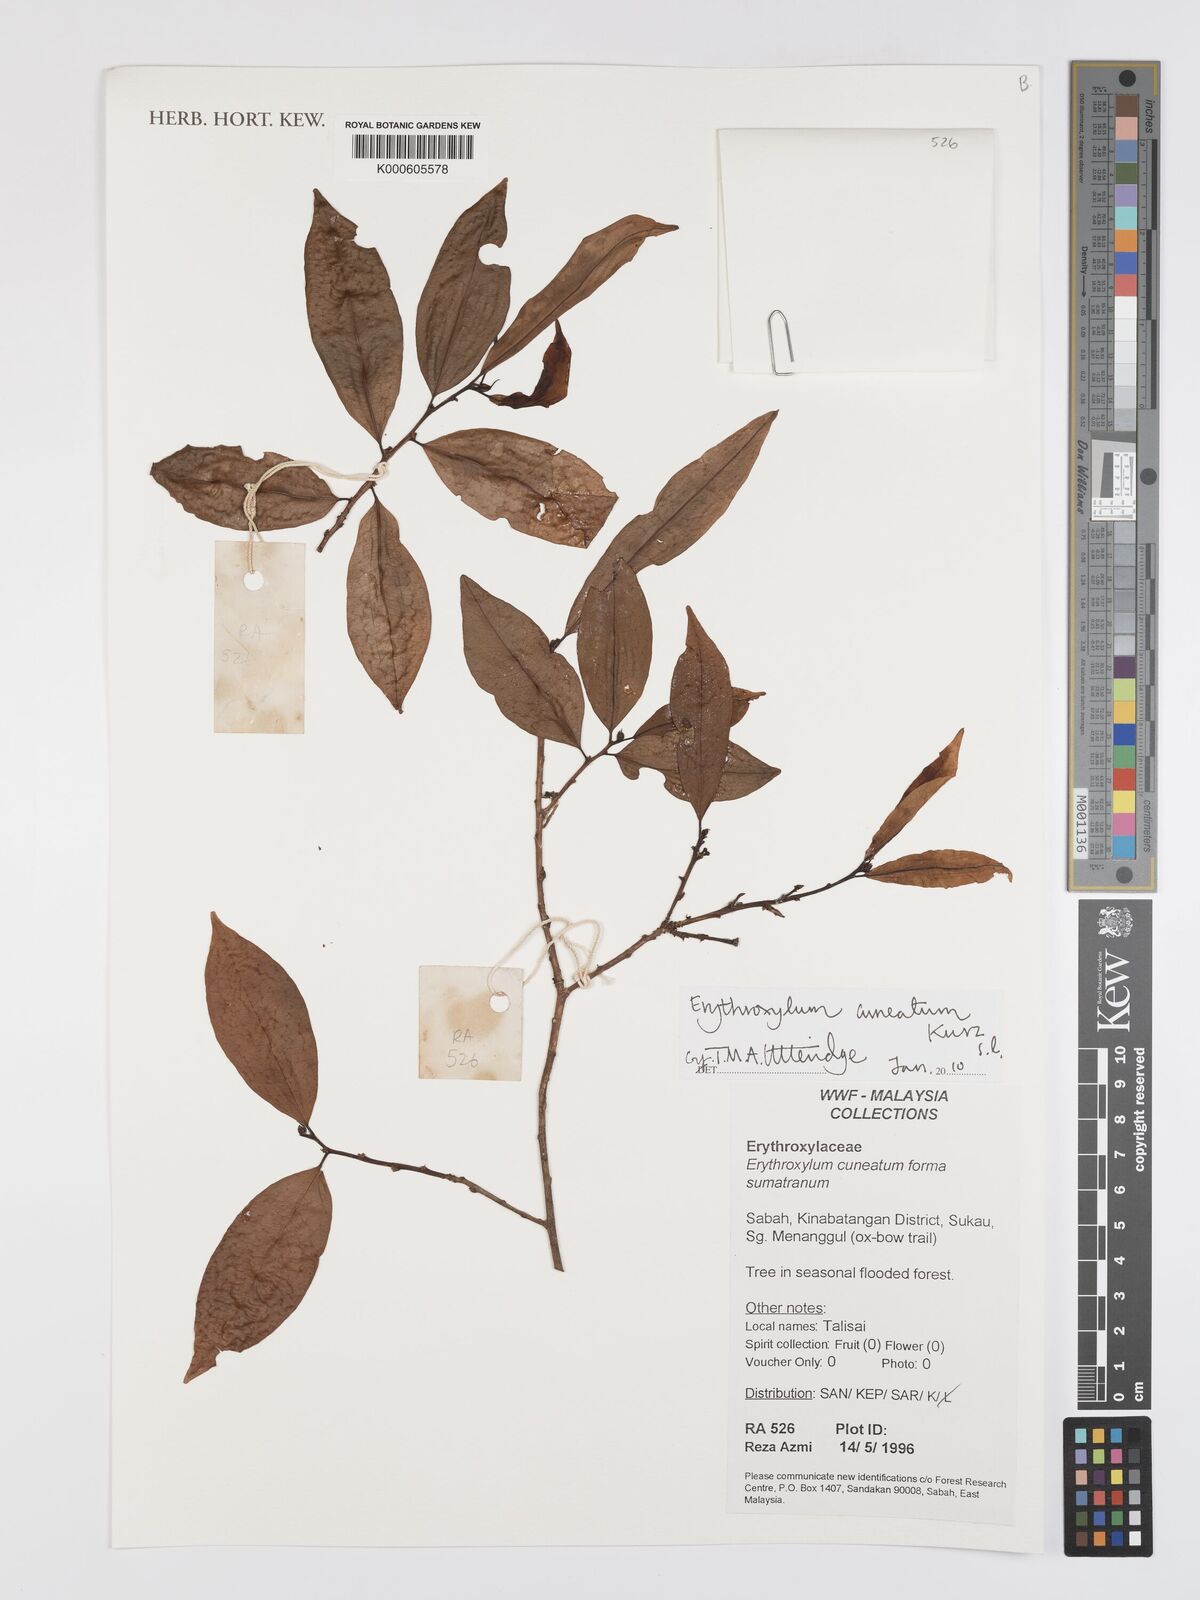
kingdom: Plantae
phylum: Tracheophyta
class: Magnoliopsida
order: Malpighiales
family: Erythroxylaceae
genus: Erythroxylum
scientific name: Erythroxylum cuneatum
